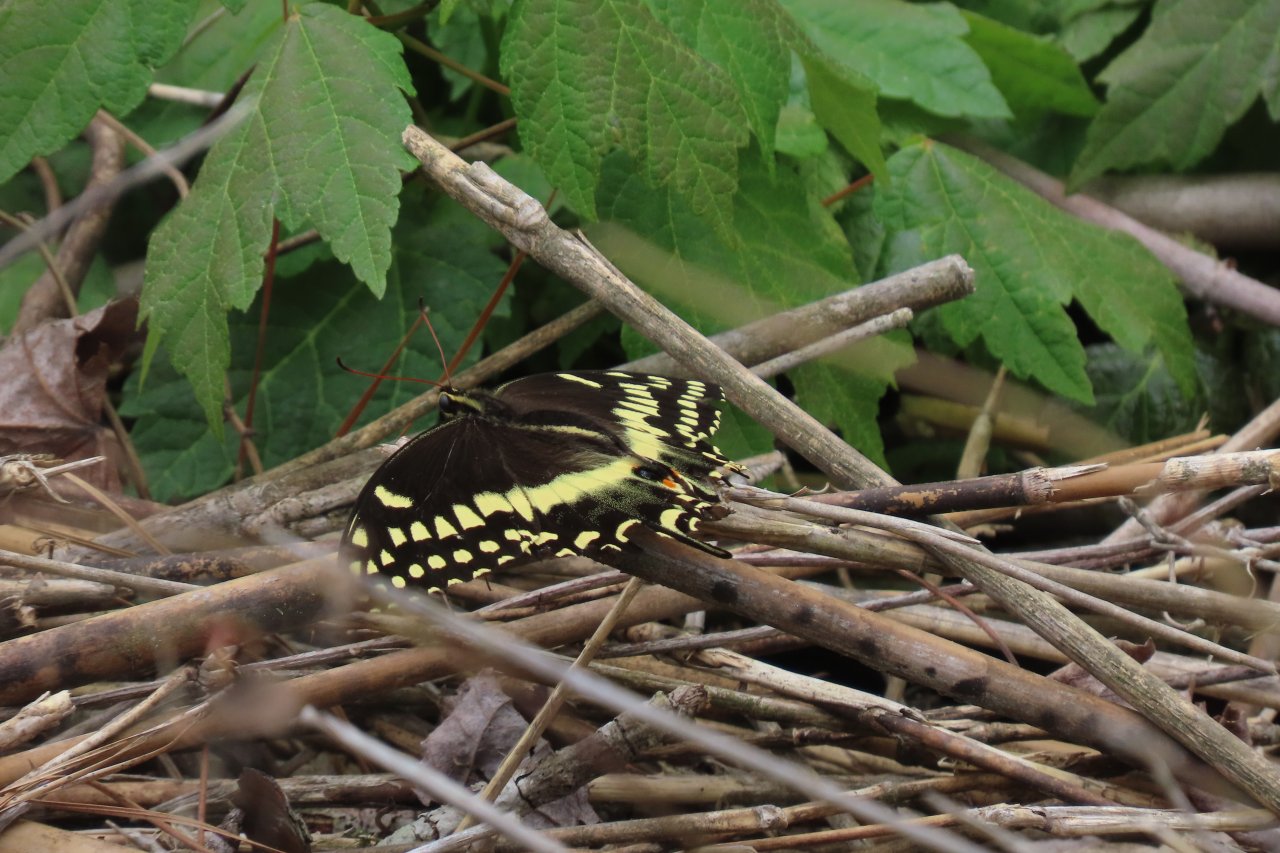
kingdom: Animalia
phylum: Arthropoda
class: Insecta
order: Lepidoptera
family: Papilionidae
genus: Pterourus
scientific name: Pterourus palamedes
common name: Palamedes Swallowtail
